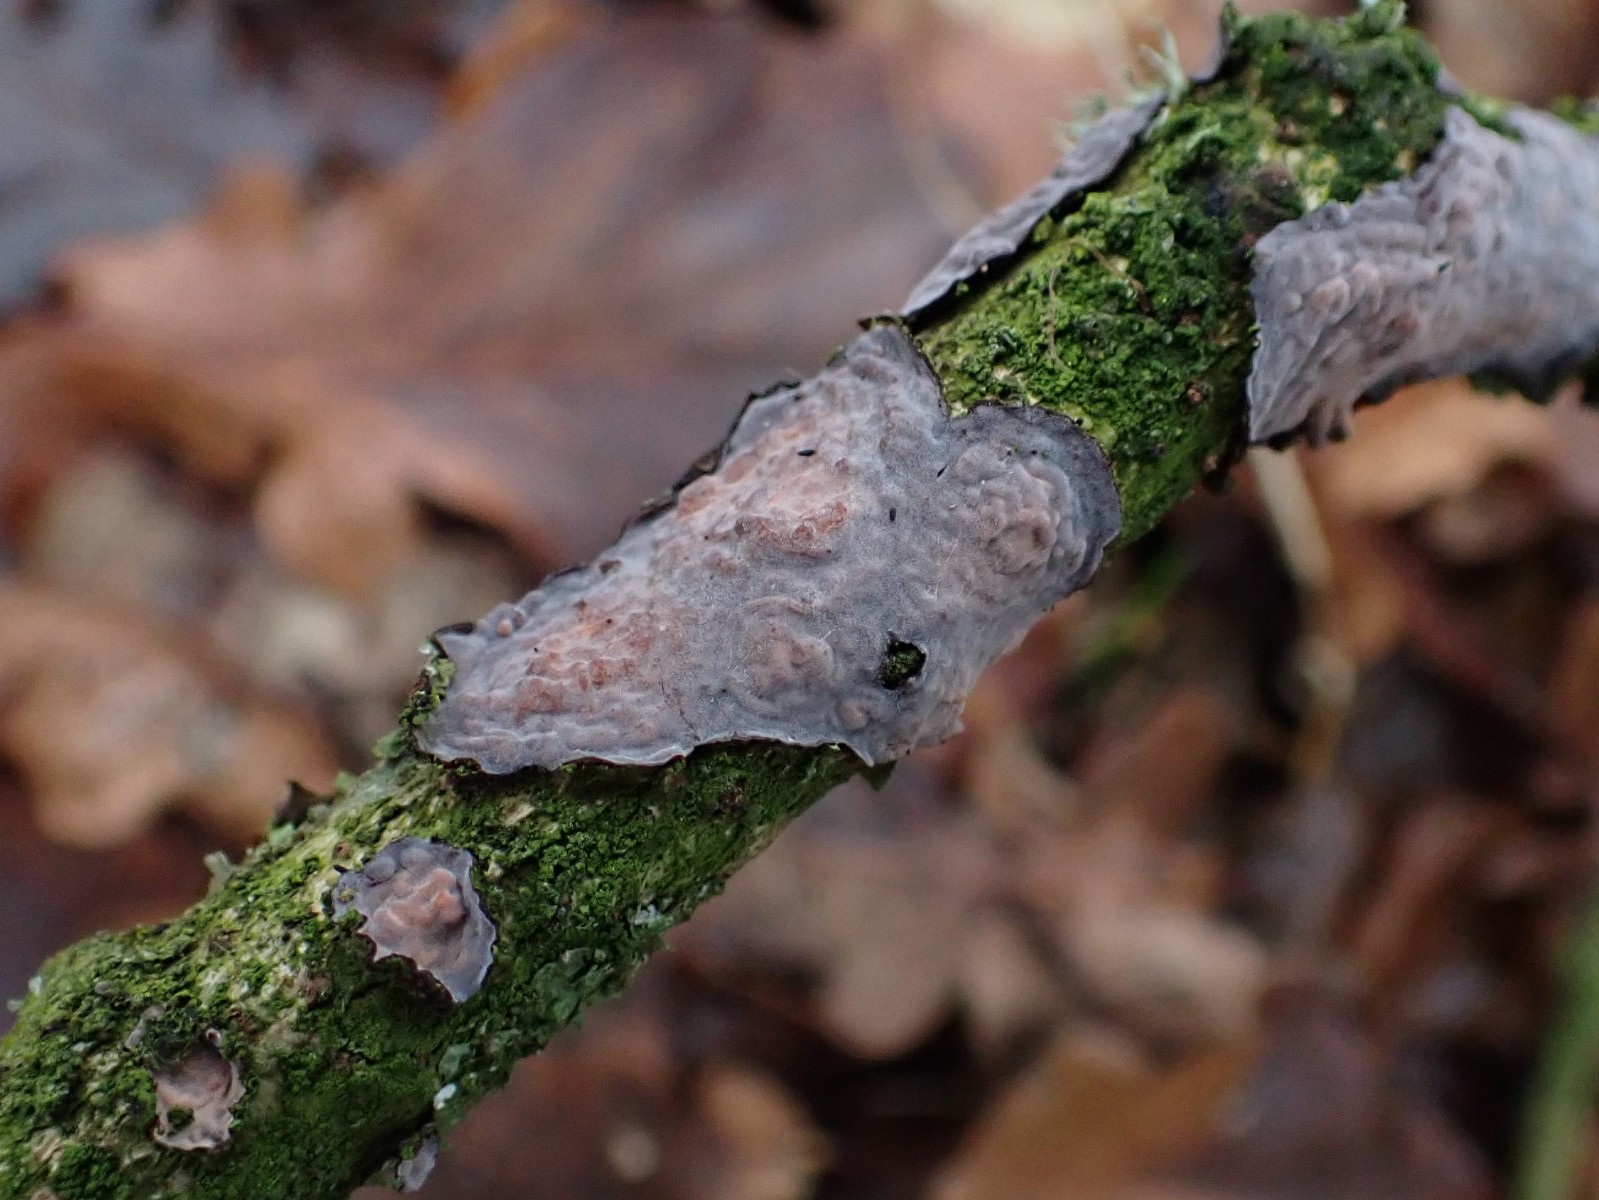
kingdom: Fungi
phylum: Basidiomycota
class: Agaricomycetes
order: Russulales
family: Peniophoraceae
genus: Peniophora
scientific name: Peniophora quercina
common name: ege-voksskind
